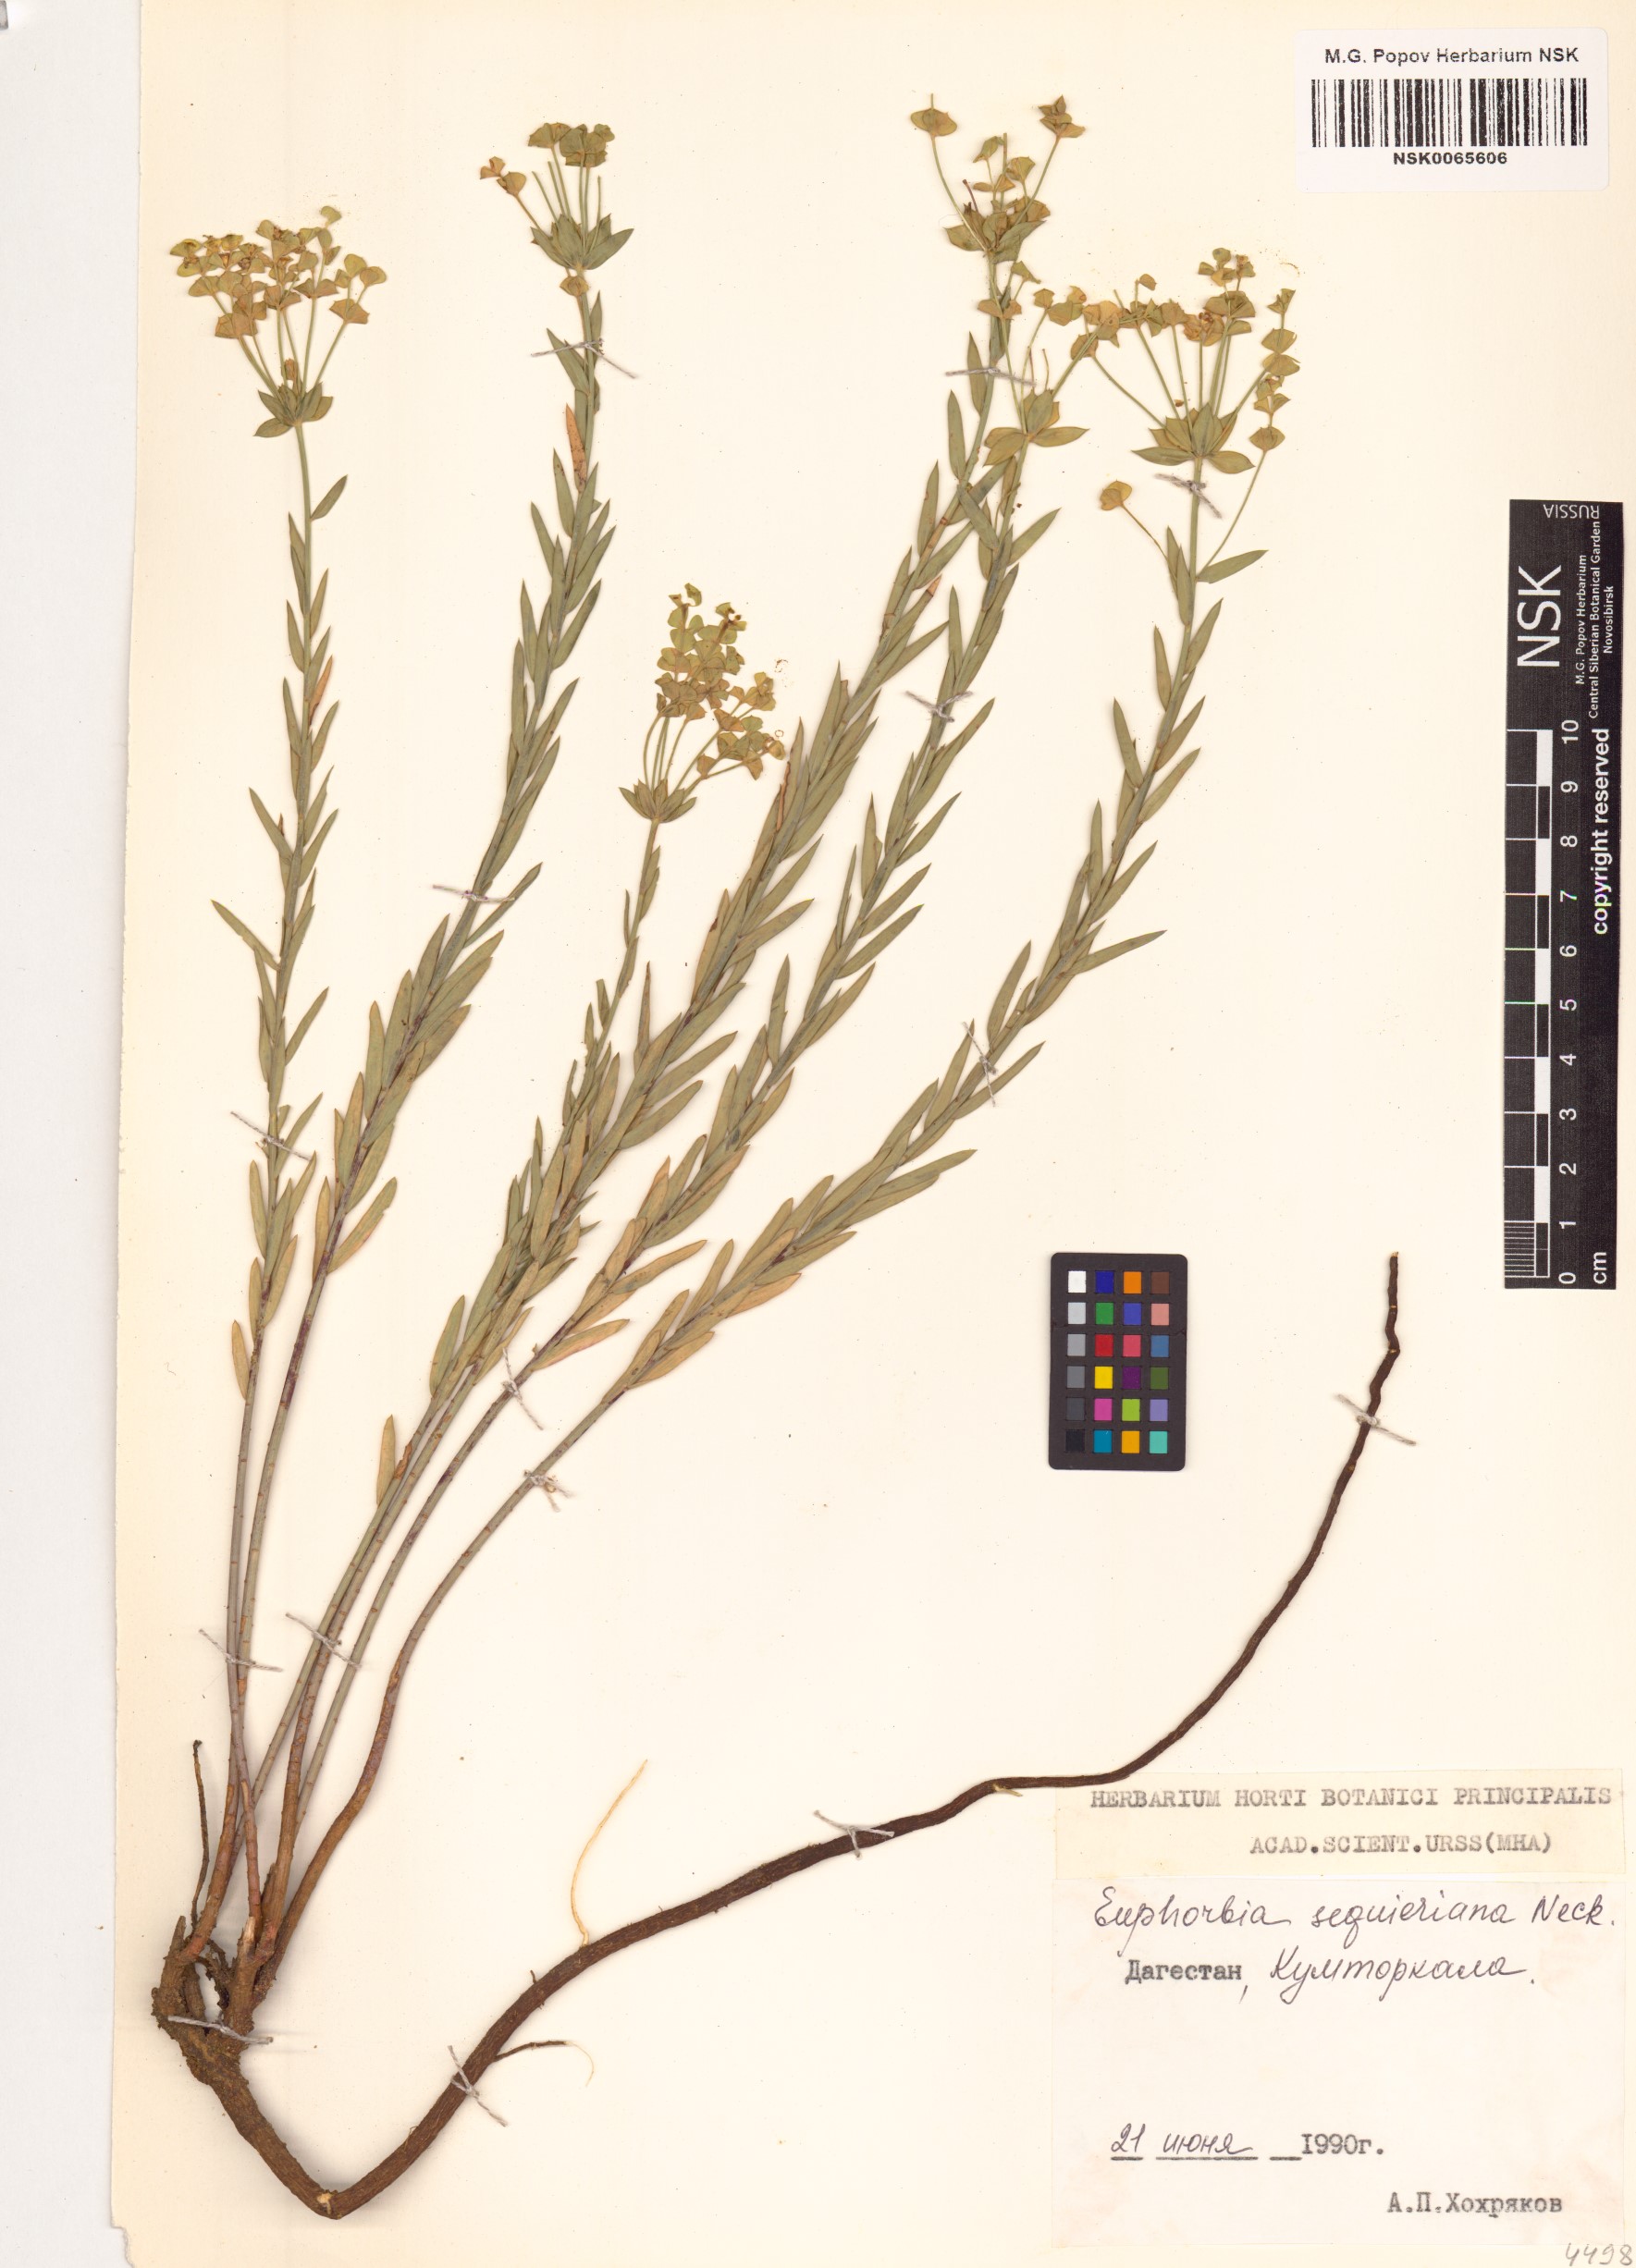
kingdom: Plantae
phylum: Tracheophyta
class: Magnoliopsida
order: Malpighiales
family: Euphorbiaceae
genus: Euphorbia
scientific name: Euphorbia seguieriana
